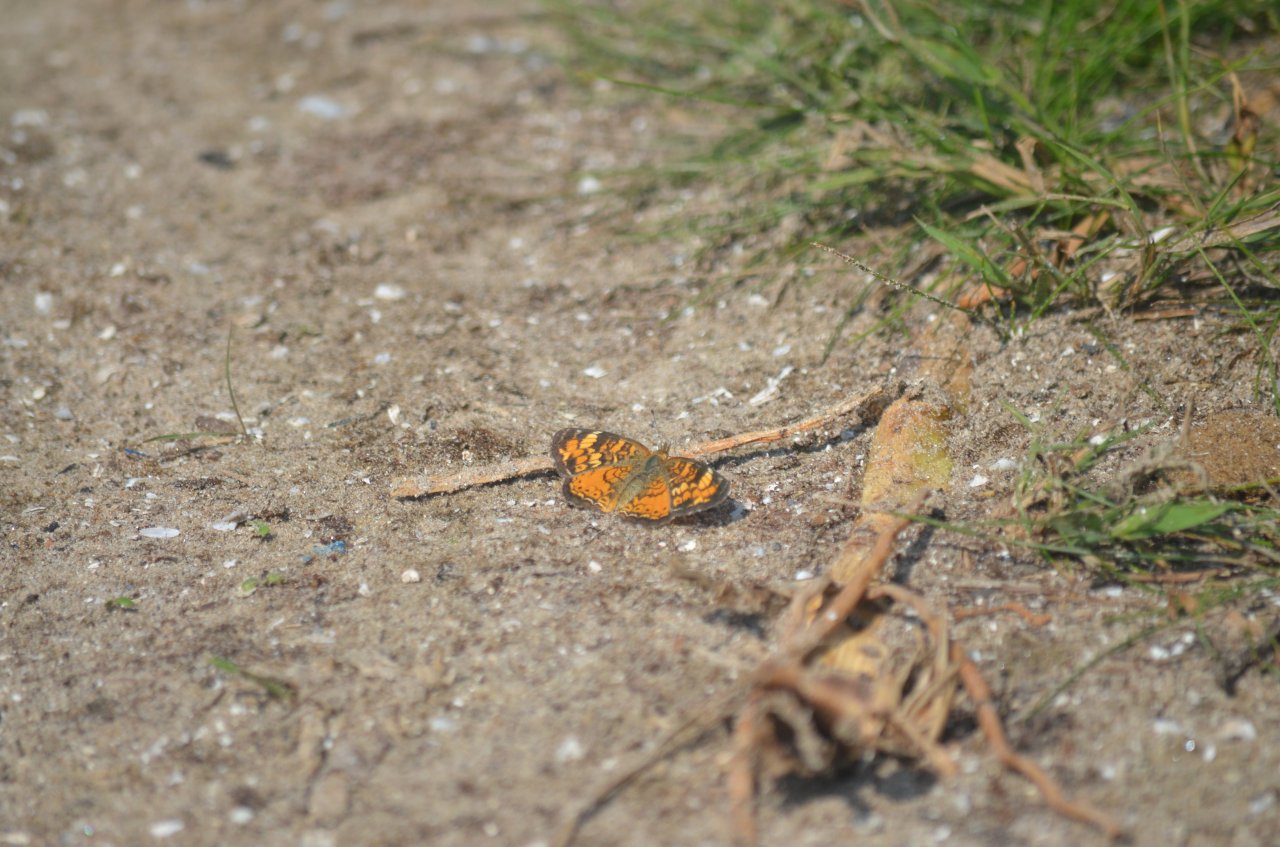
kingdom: Animalia
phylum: Arthropoda
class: Insecta
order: Lepidoptera
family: Nymphalidae
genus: Phyciodes
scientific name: Phyciodes tharos
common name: Northern Crescent
